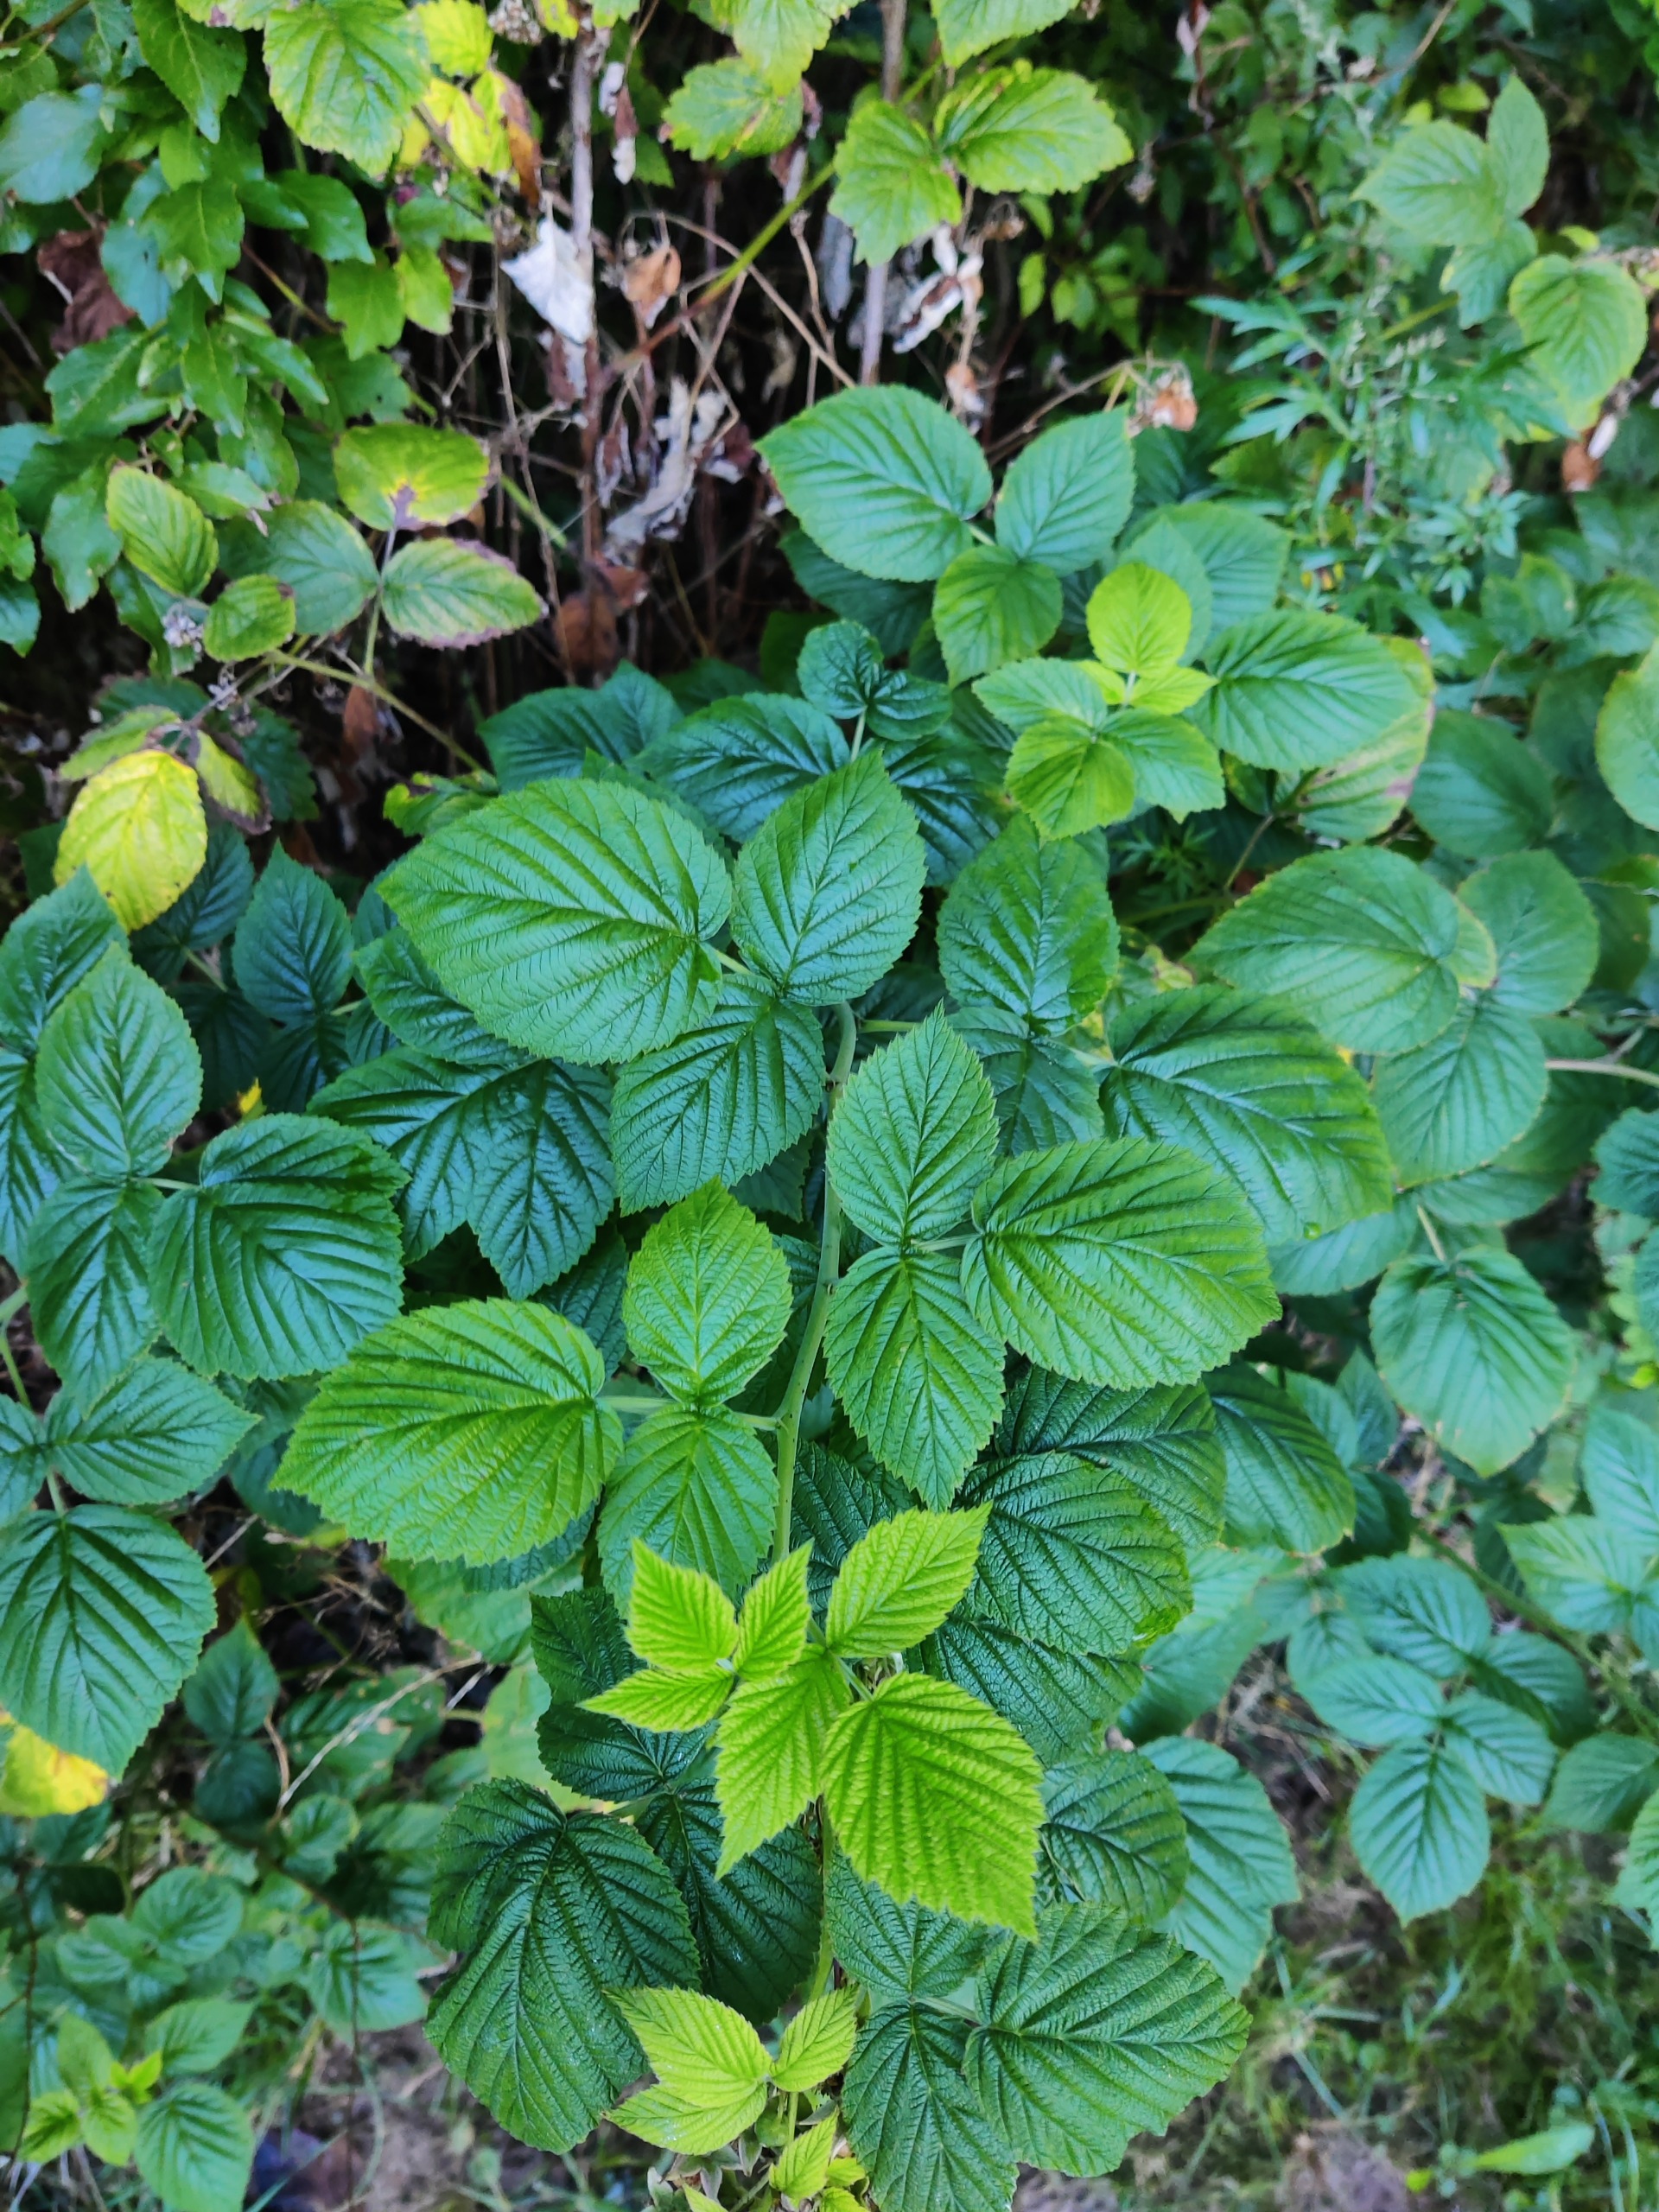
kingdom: Plantae
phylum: Tracheophyta
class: Magnoliopsida
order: Rosales
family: Rosaceae
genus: Rubus
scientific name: Rubus idaeus
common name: Hindbær
